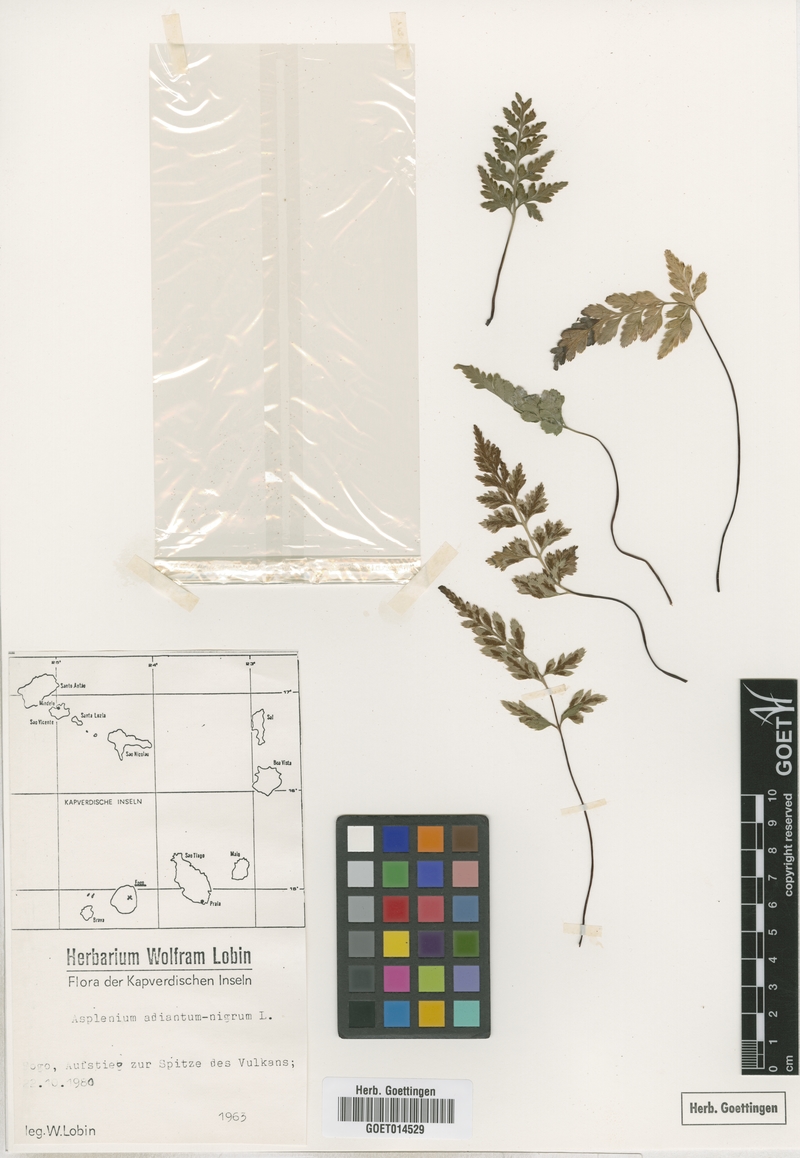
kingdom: Plantae
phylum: Tracheophyta
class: Polypodiopsida
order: Polypodiales
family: Aspleniaceae
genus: Asplenium
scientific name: Asplenium adiantum-nigrum
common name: Black spleenwort
